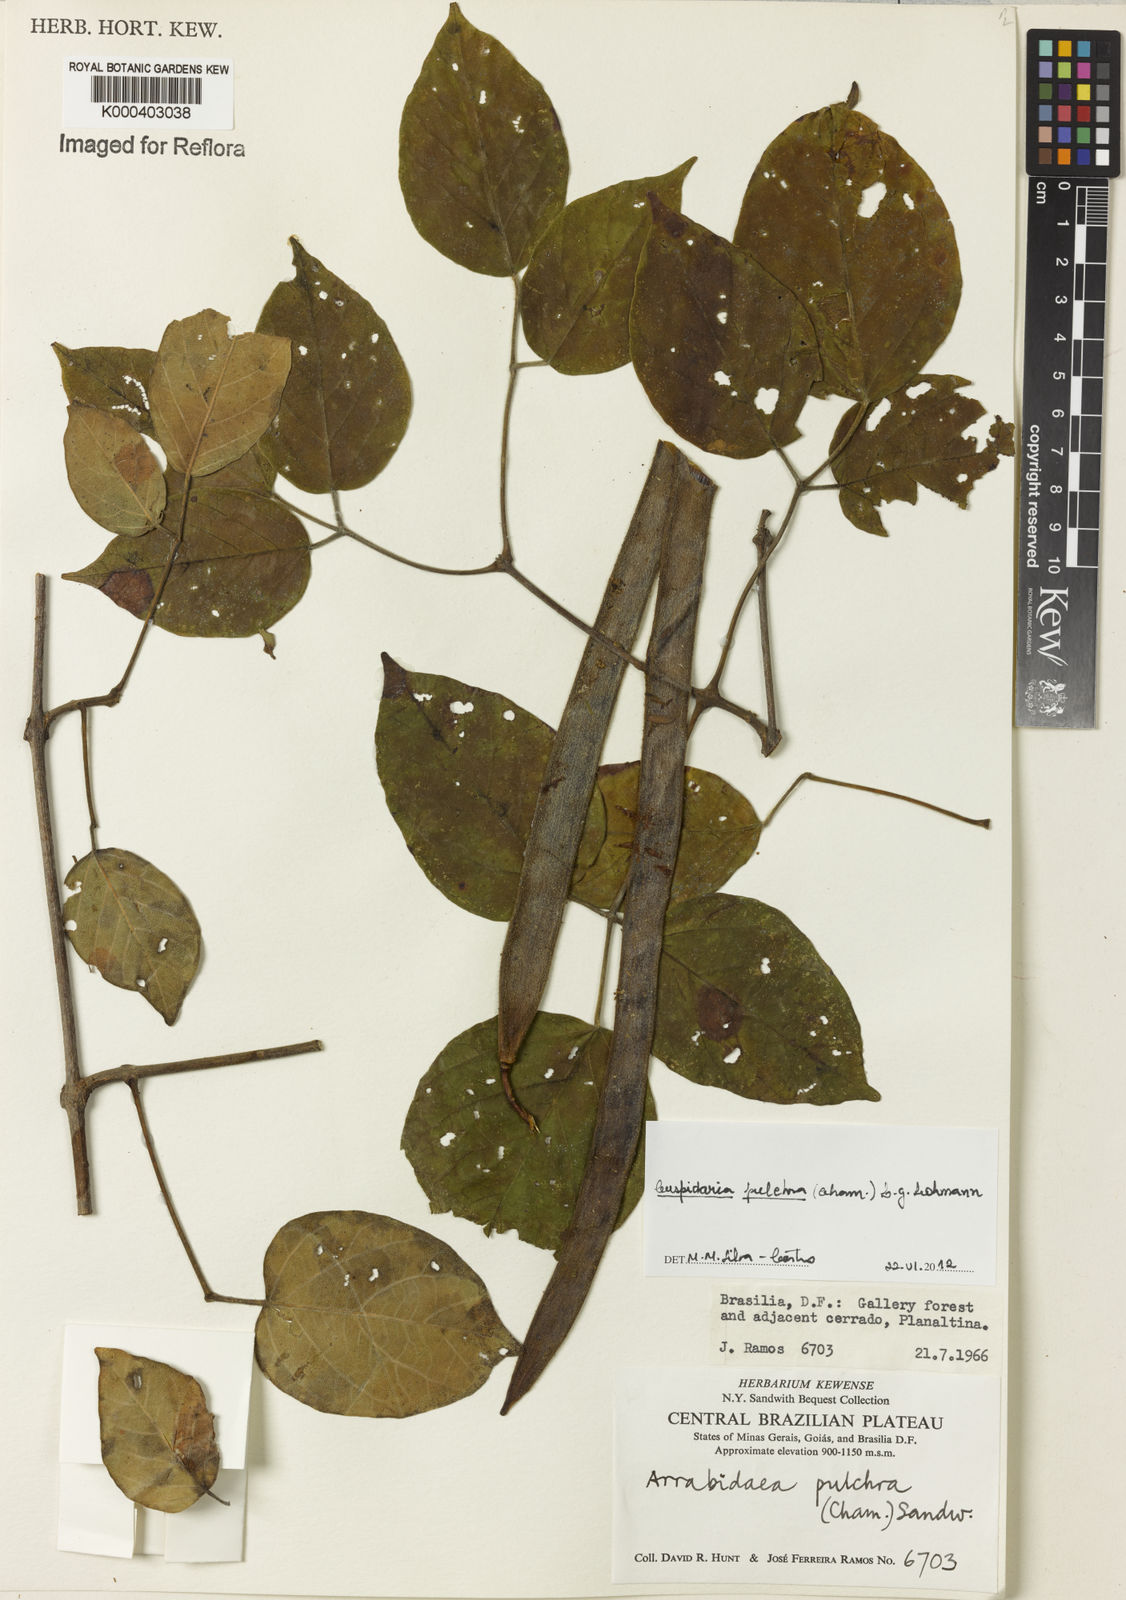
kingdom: Plantae
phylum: Tracheophyta
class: Magnoliopsida
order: Lamiales
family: Bignoniaceae
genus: Cuspidaria
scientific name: Cuspidaria pulchra
